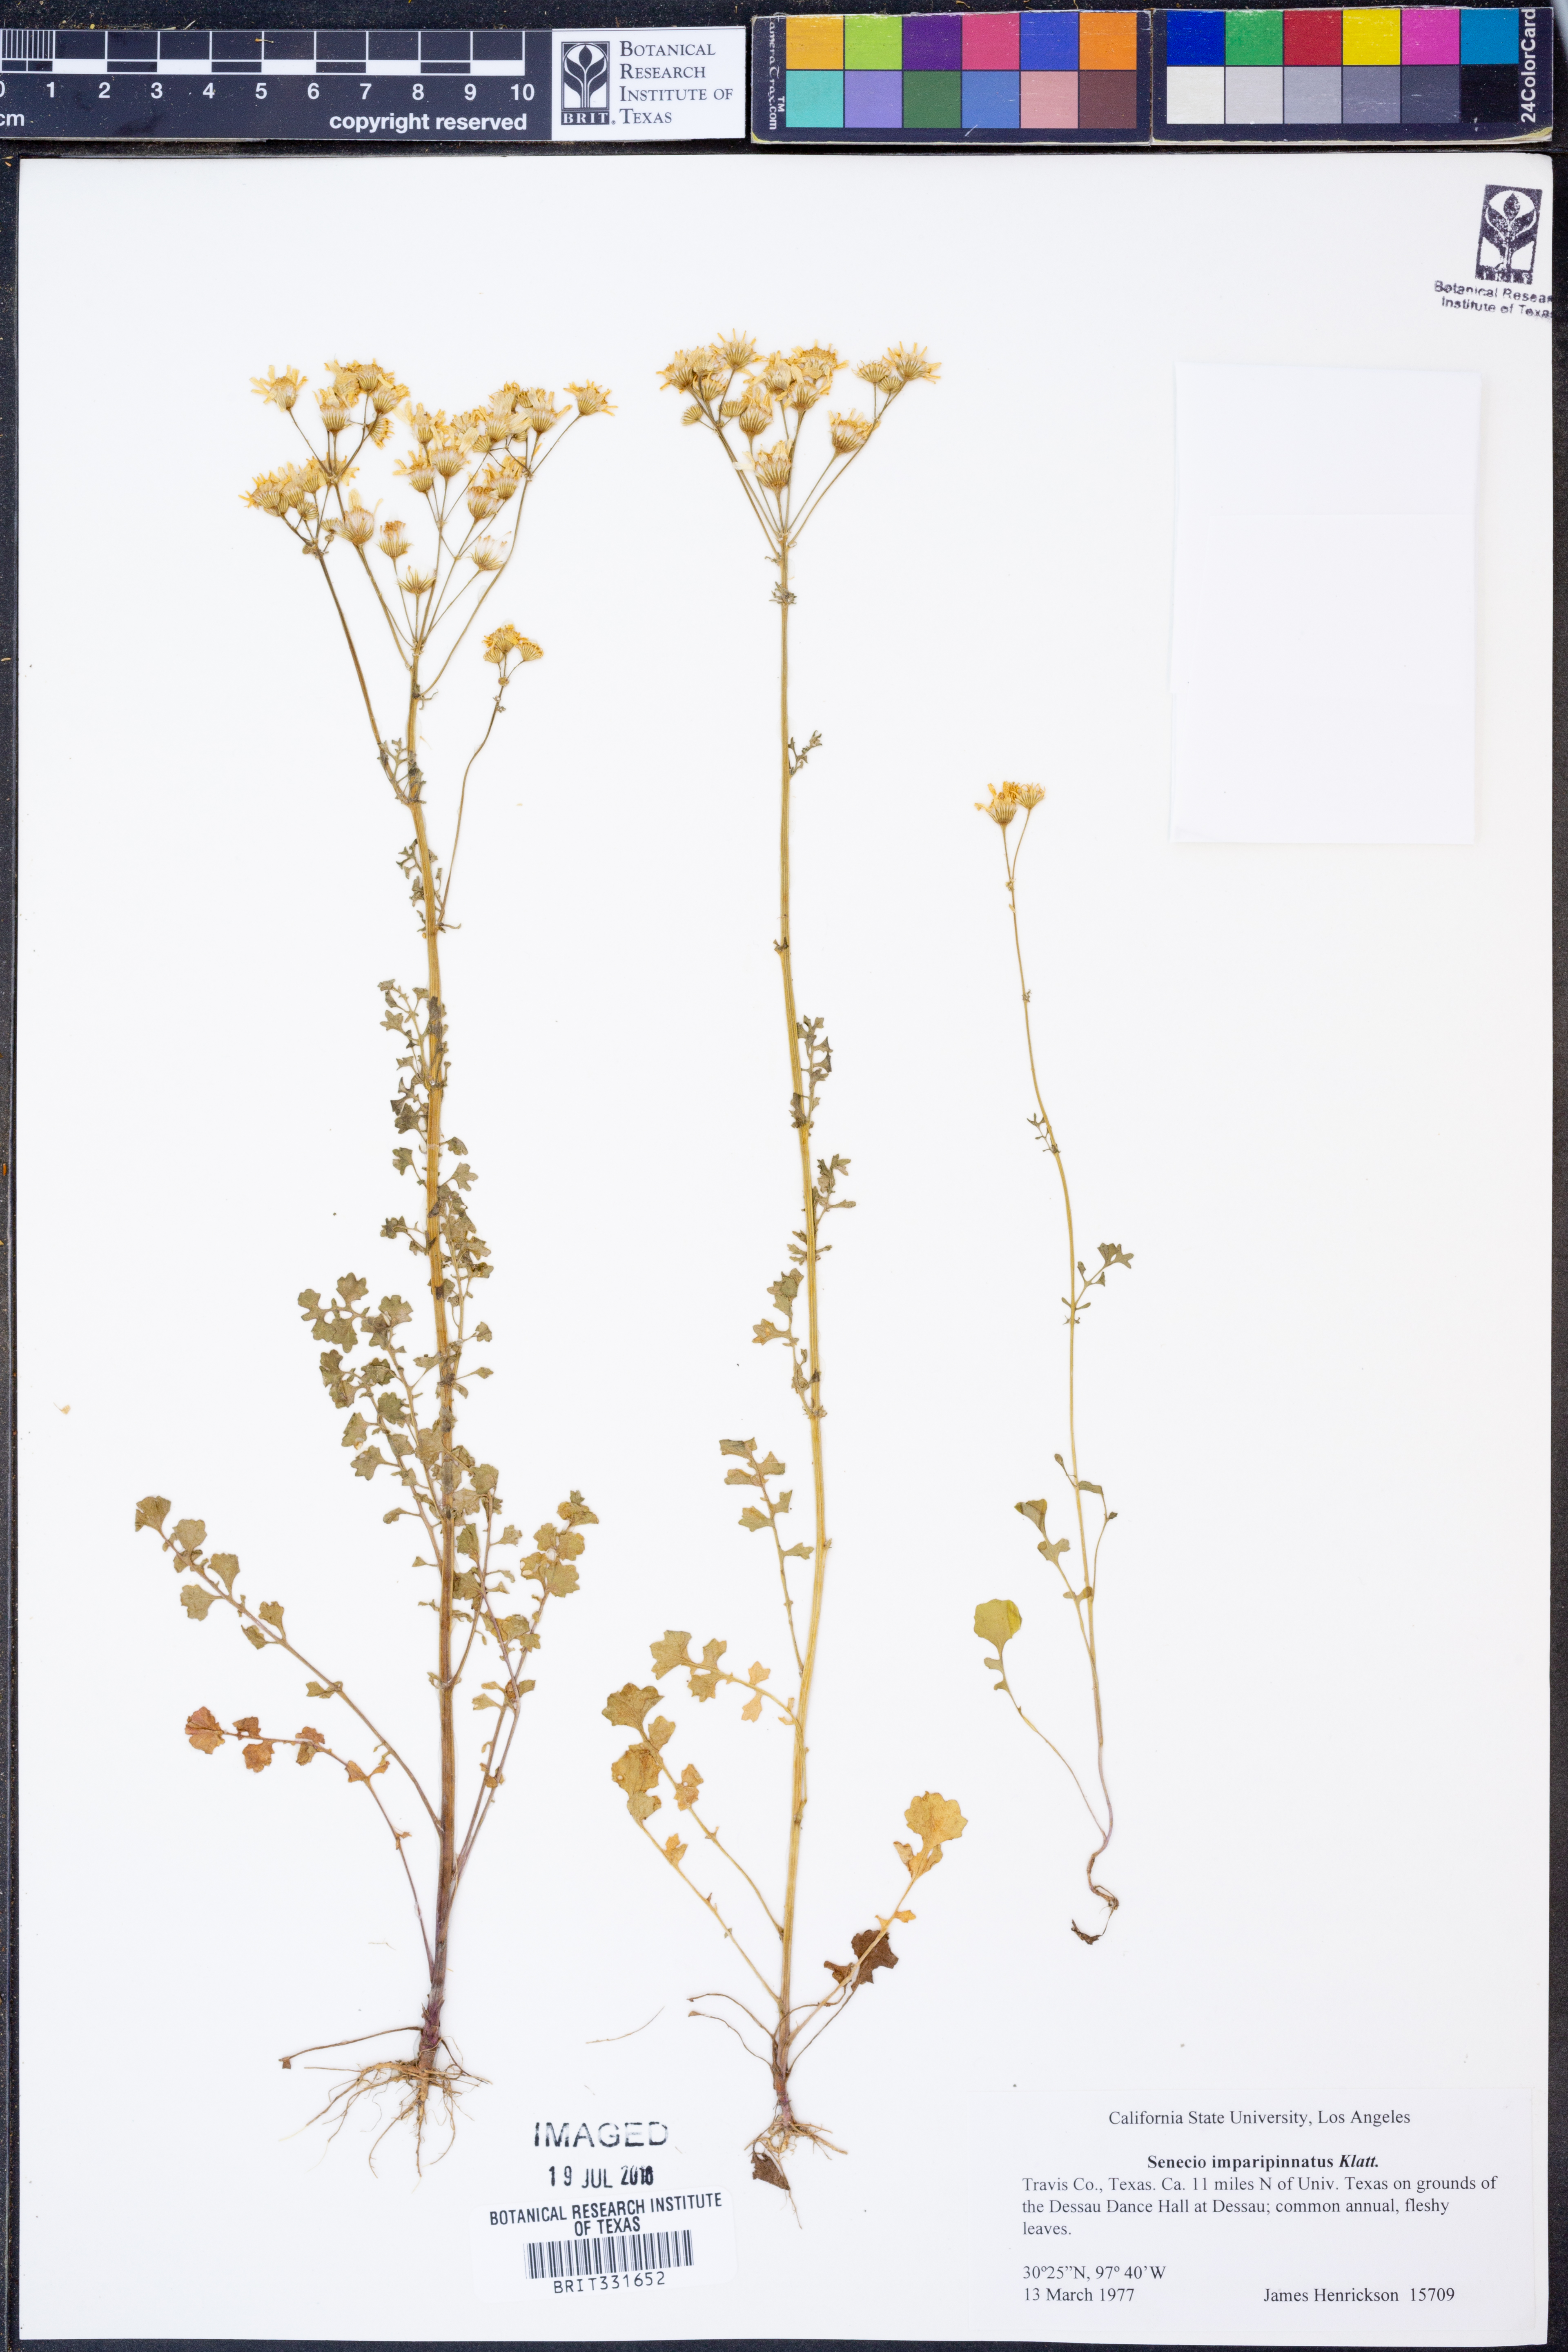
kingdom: Plantae
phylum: Tracheophyta
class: Magnoliopsida
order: Asterales
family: Asteraceae
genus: Packera
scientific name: Packera tampicana
